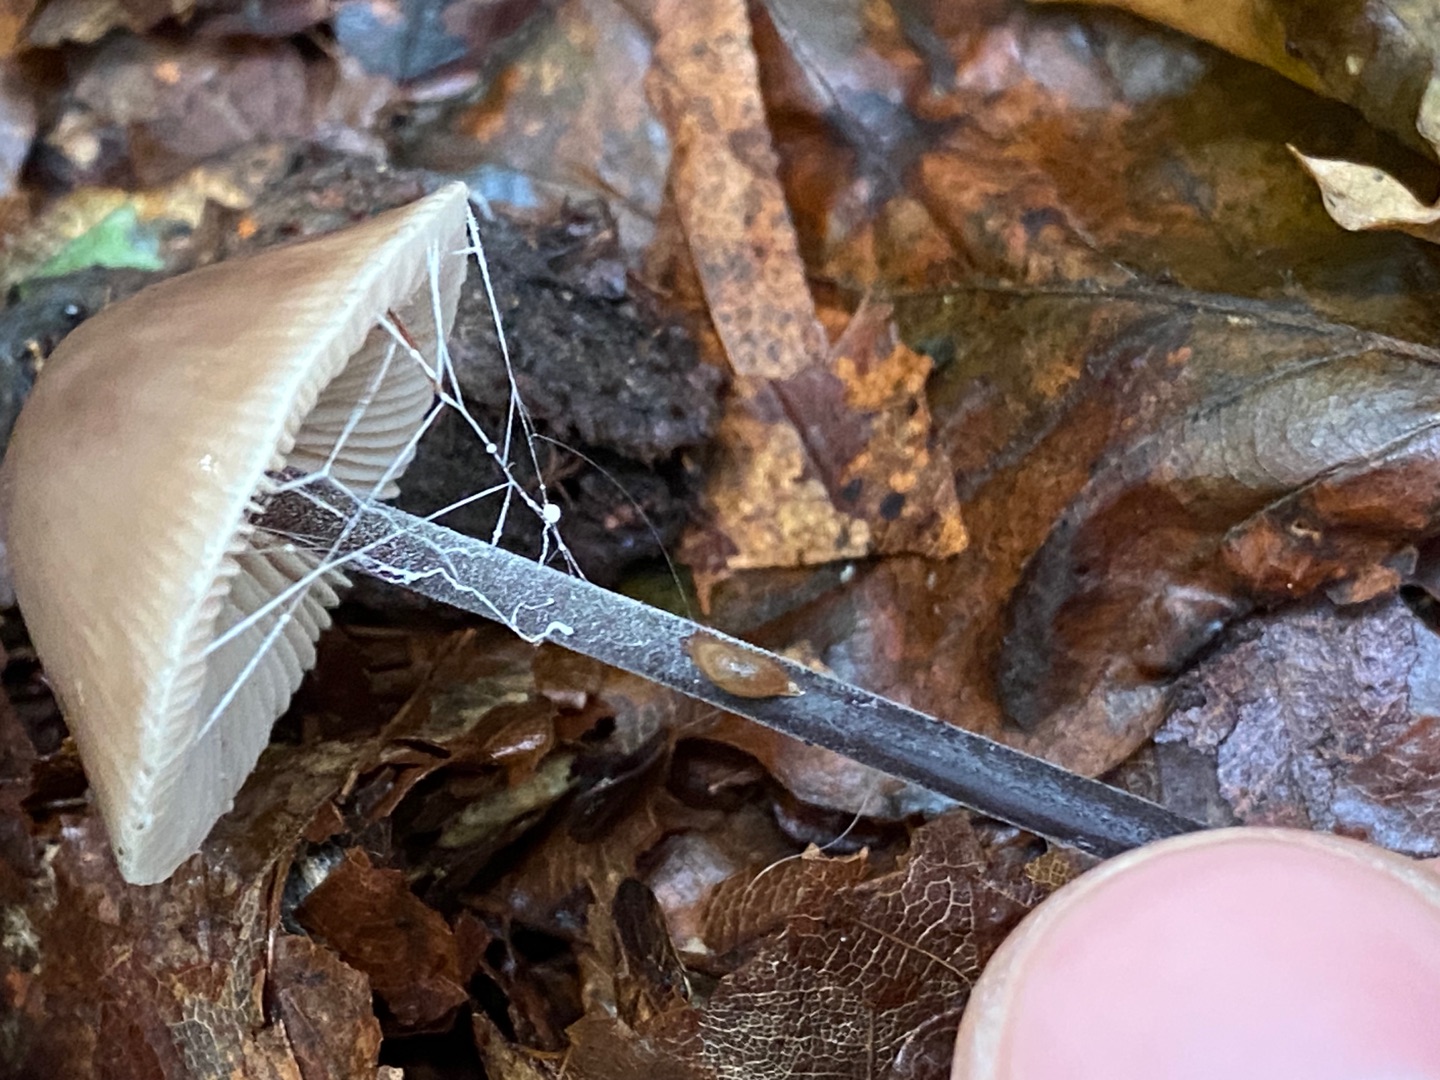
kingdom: Fungi
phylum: Basidiomycota
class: Agaricomycetes
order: Agaricales
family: Omphalotaceae
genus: Mycetinis
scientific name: Mycetinis alliaceus
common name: Stor løghat
